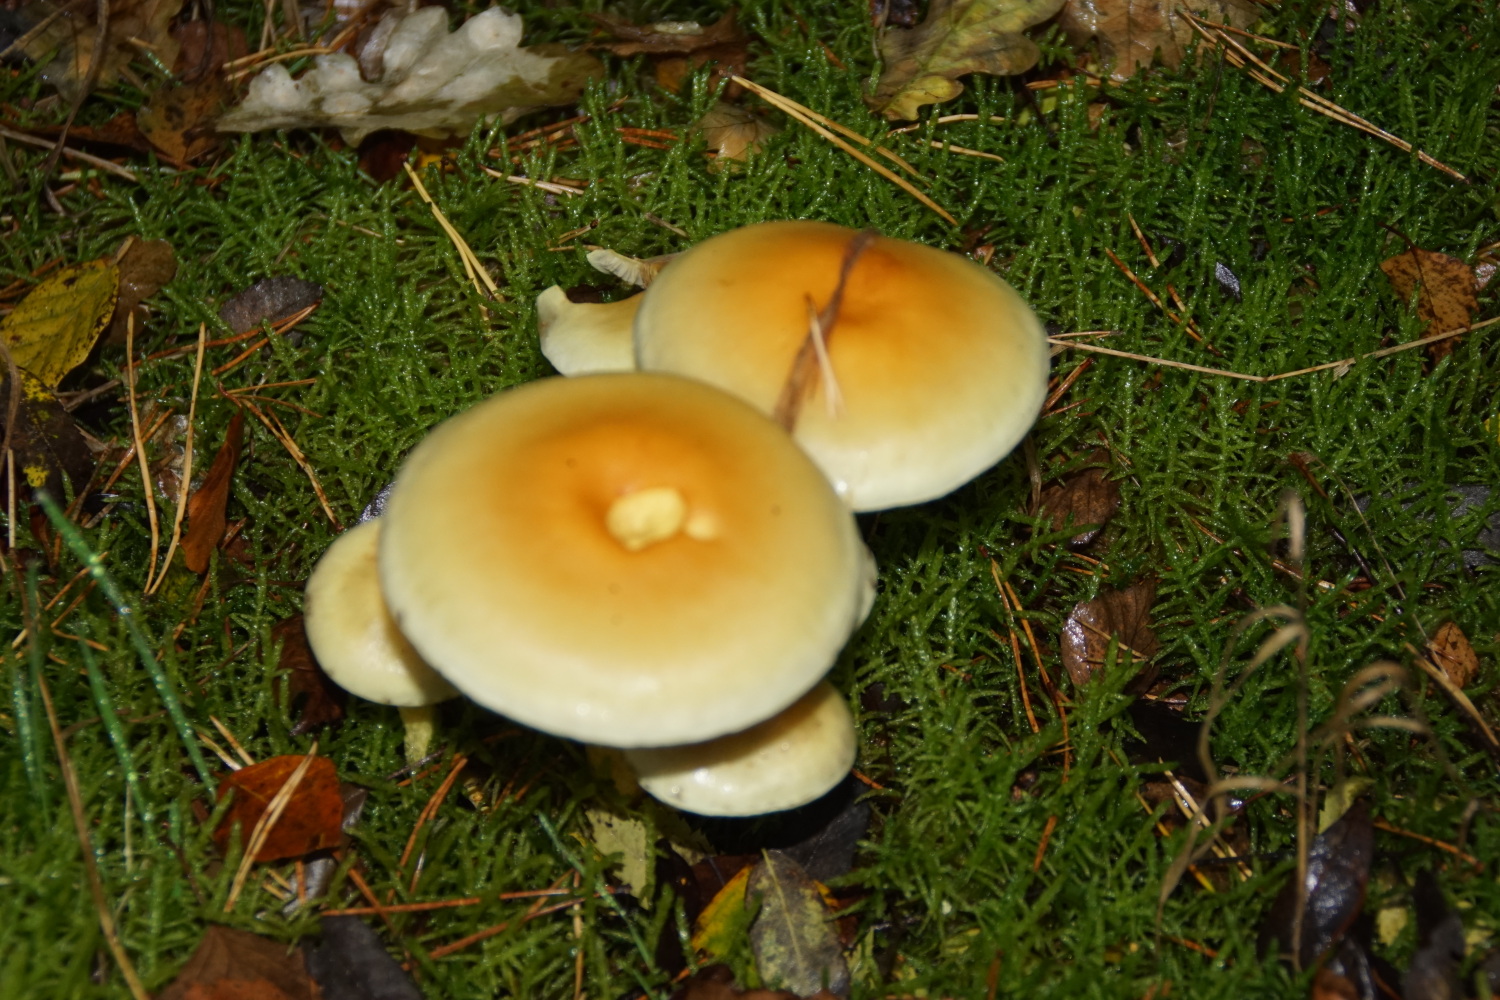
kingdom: Fungi
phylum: Basidiomycota
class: Agaricomycetes
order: Agaricales
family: Strophariaceae
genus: Hypholoma
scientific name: Hypholoma fasciculare
